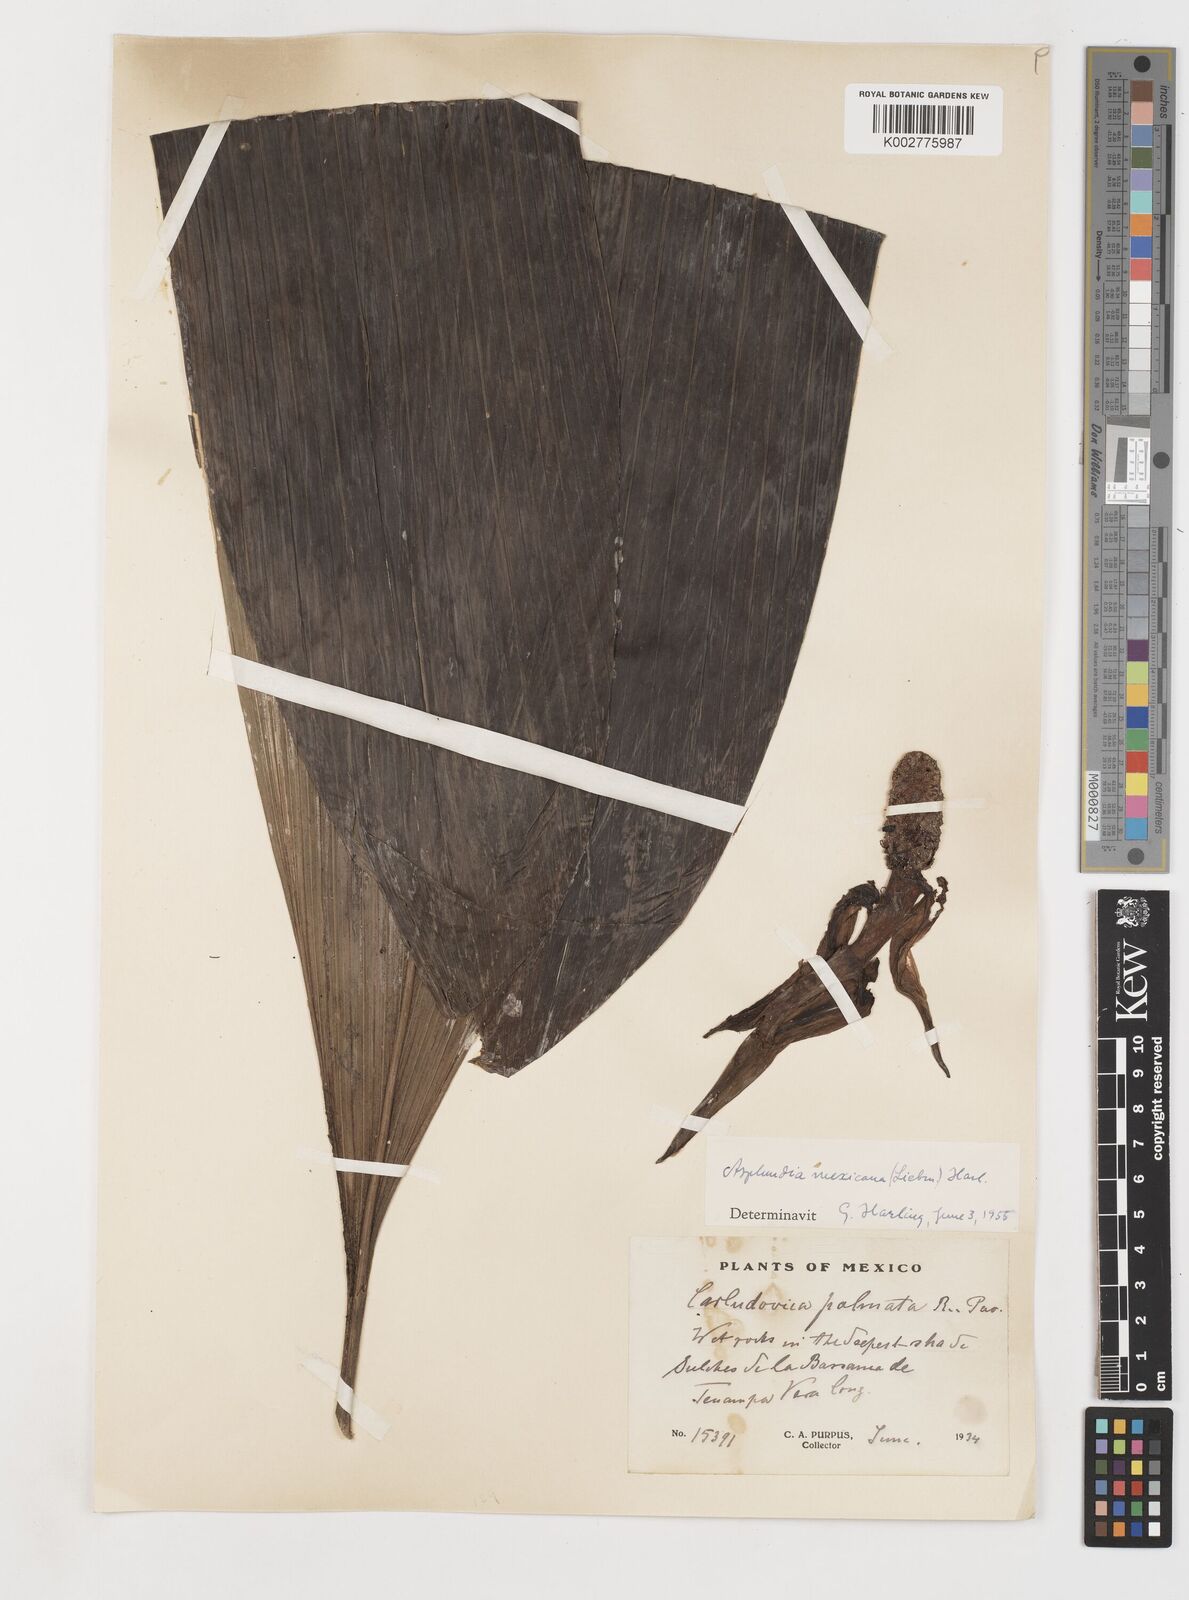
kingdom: Plantae
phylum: Tracheophyta
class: Liliopsida
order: Pandanales
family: Cyclanthaceae
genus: Asplundia
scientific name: Asplundia liebmannii
